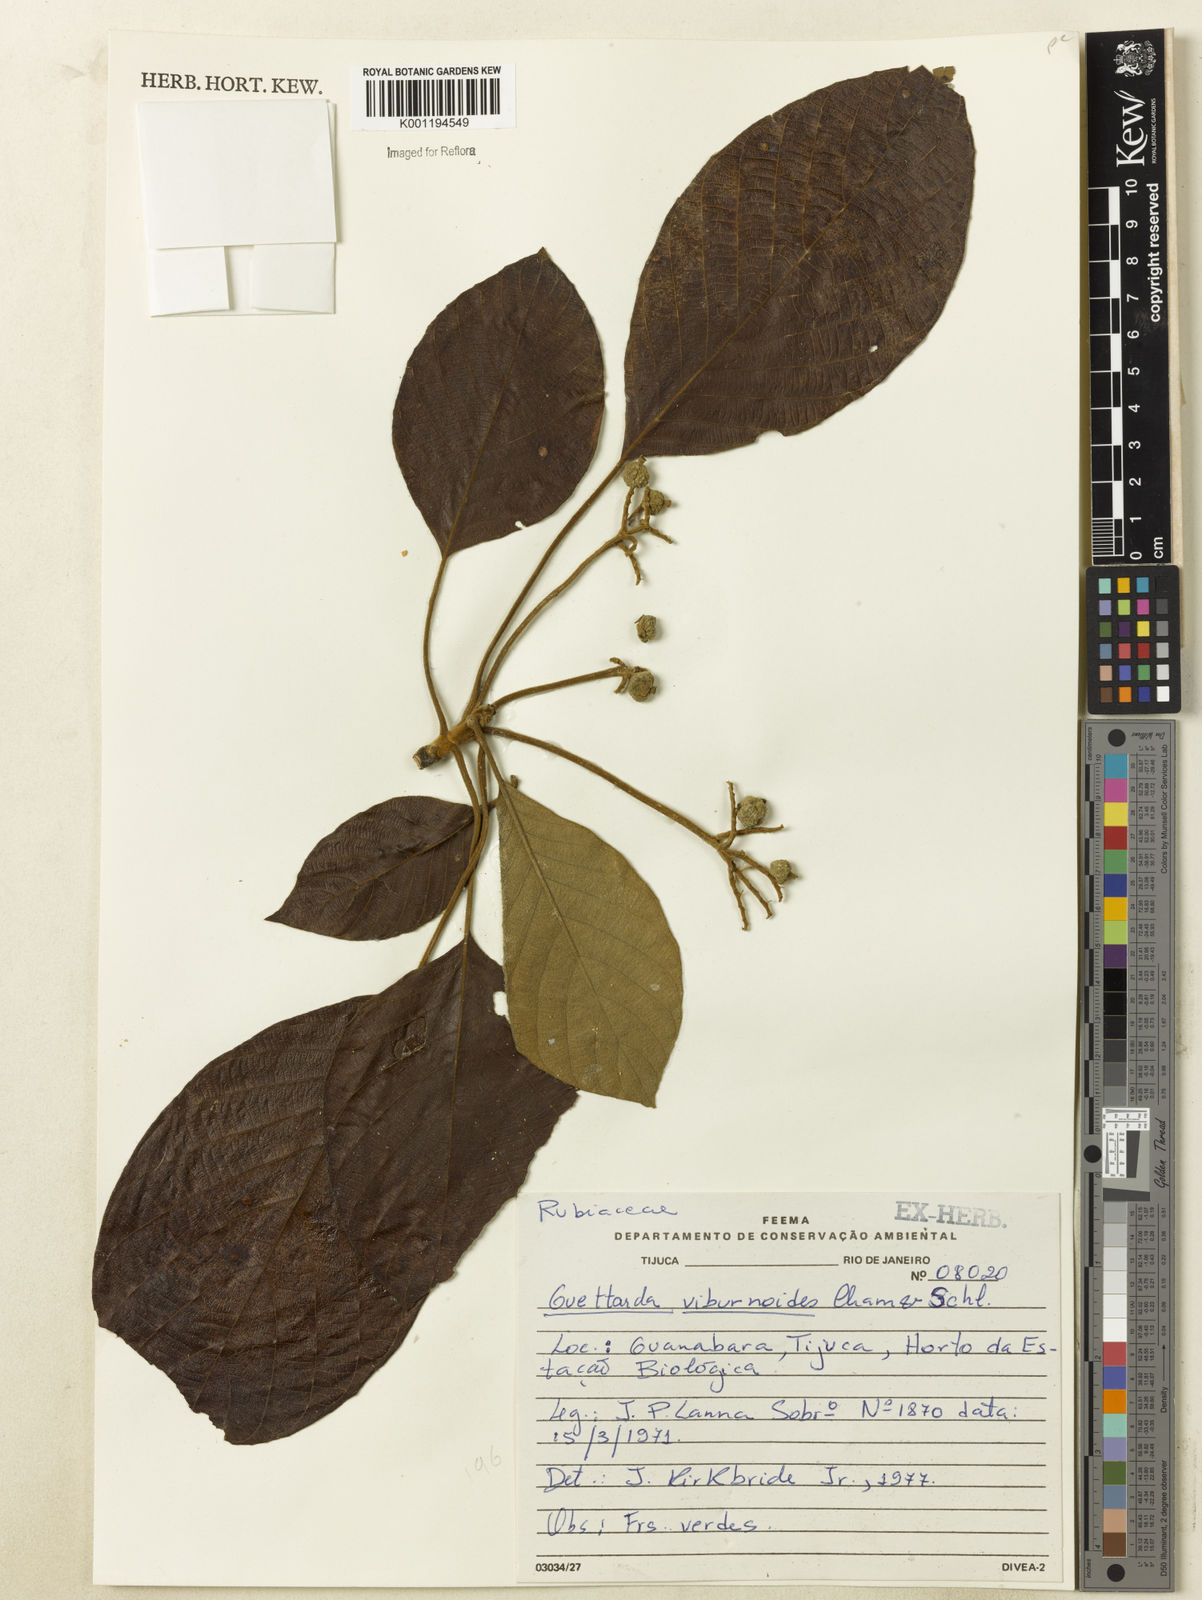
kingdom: Plantae
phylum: Tracheophyta
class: Magnoliopsida
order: Gentianales
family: Rubiaceae
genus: Guettarda
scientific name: Guettarda viburnoides
